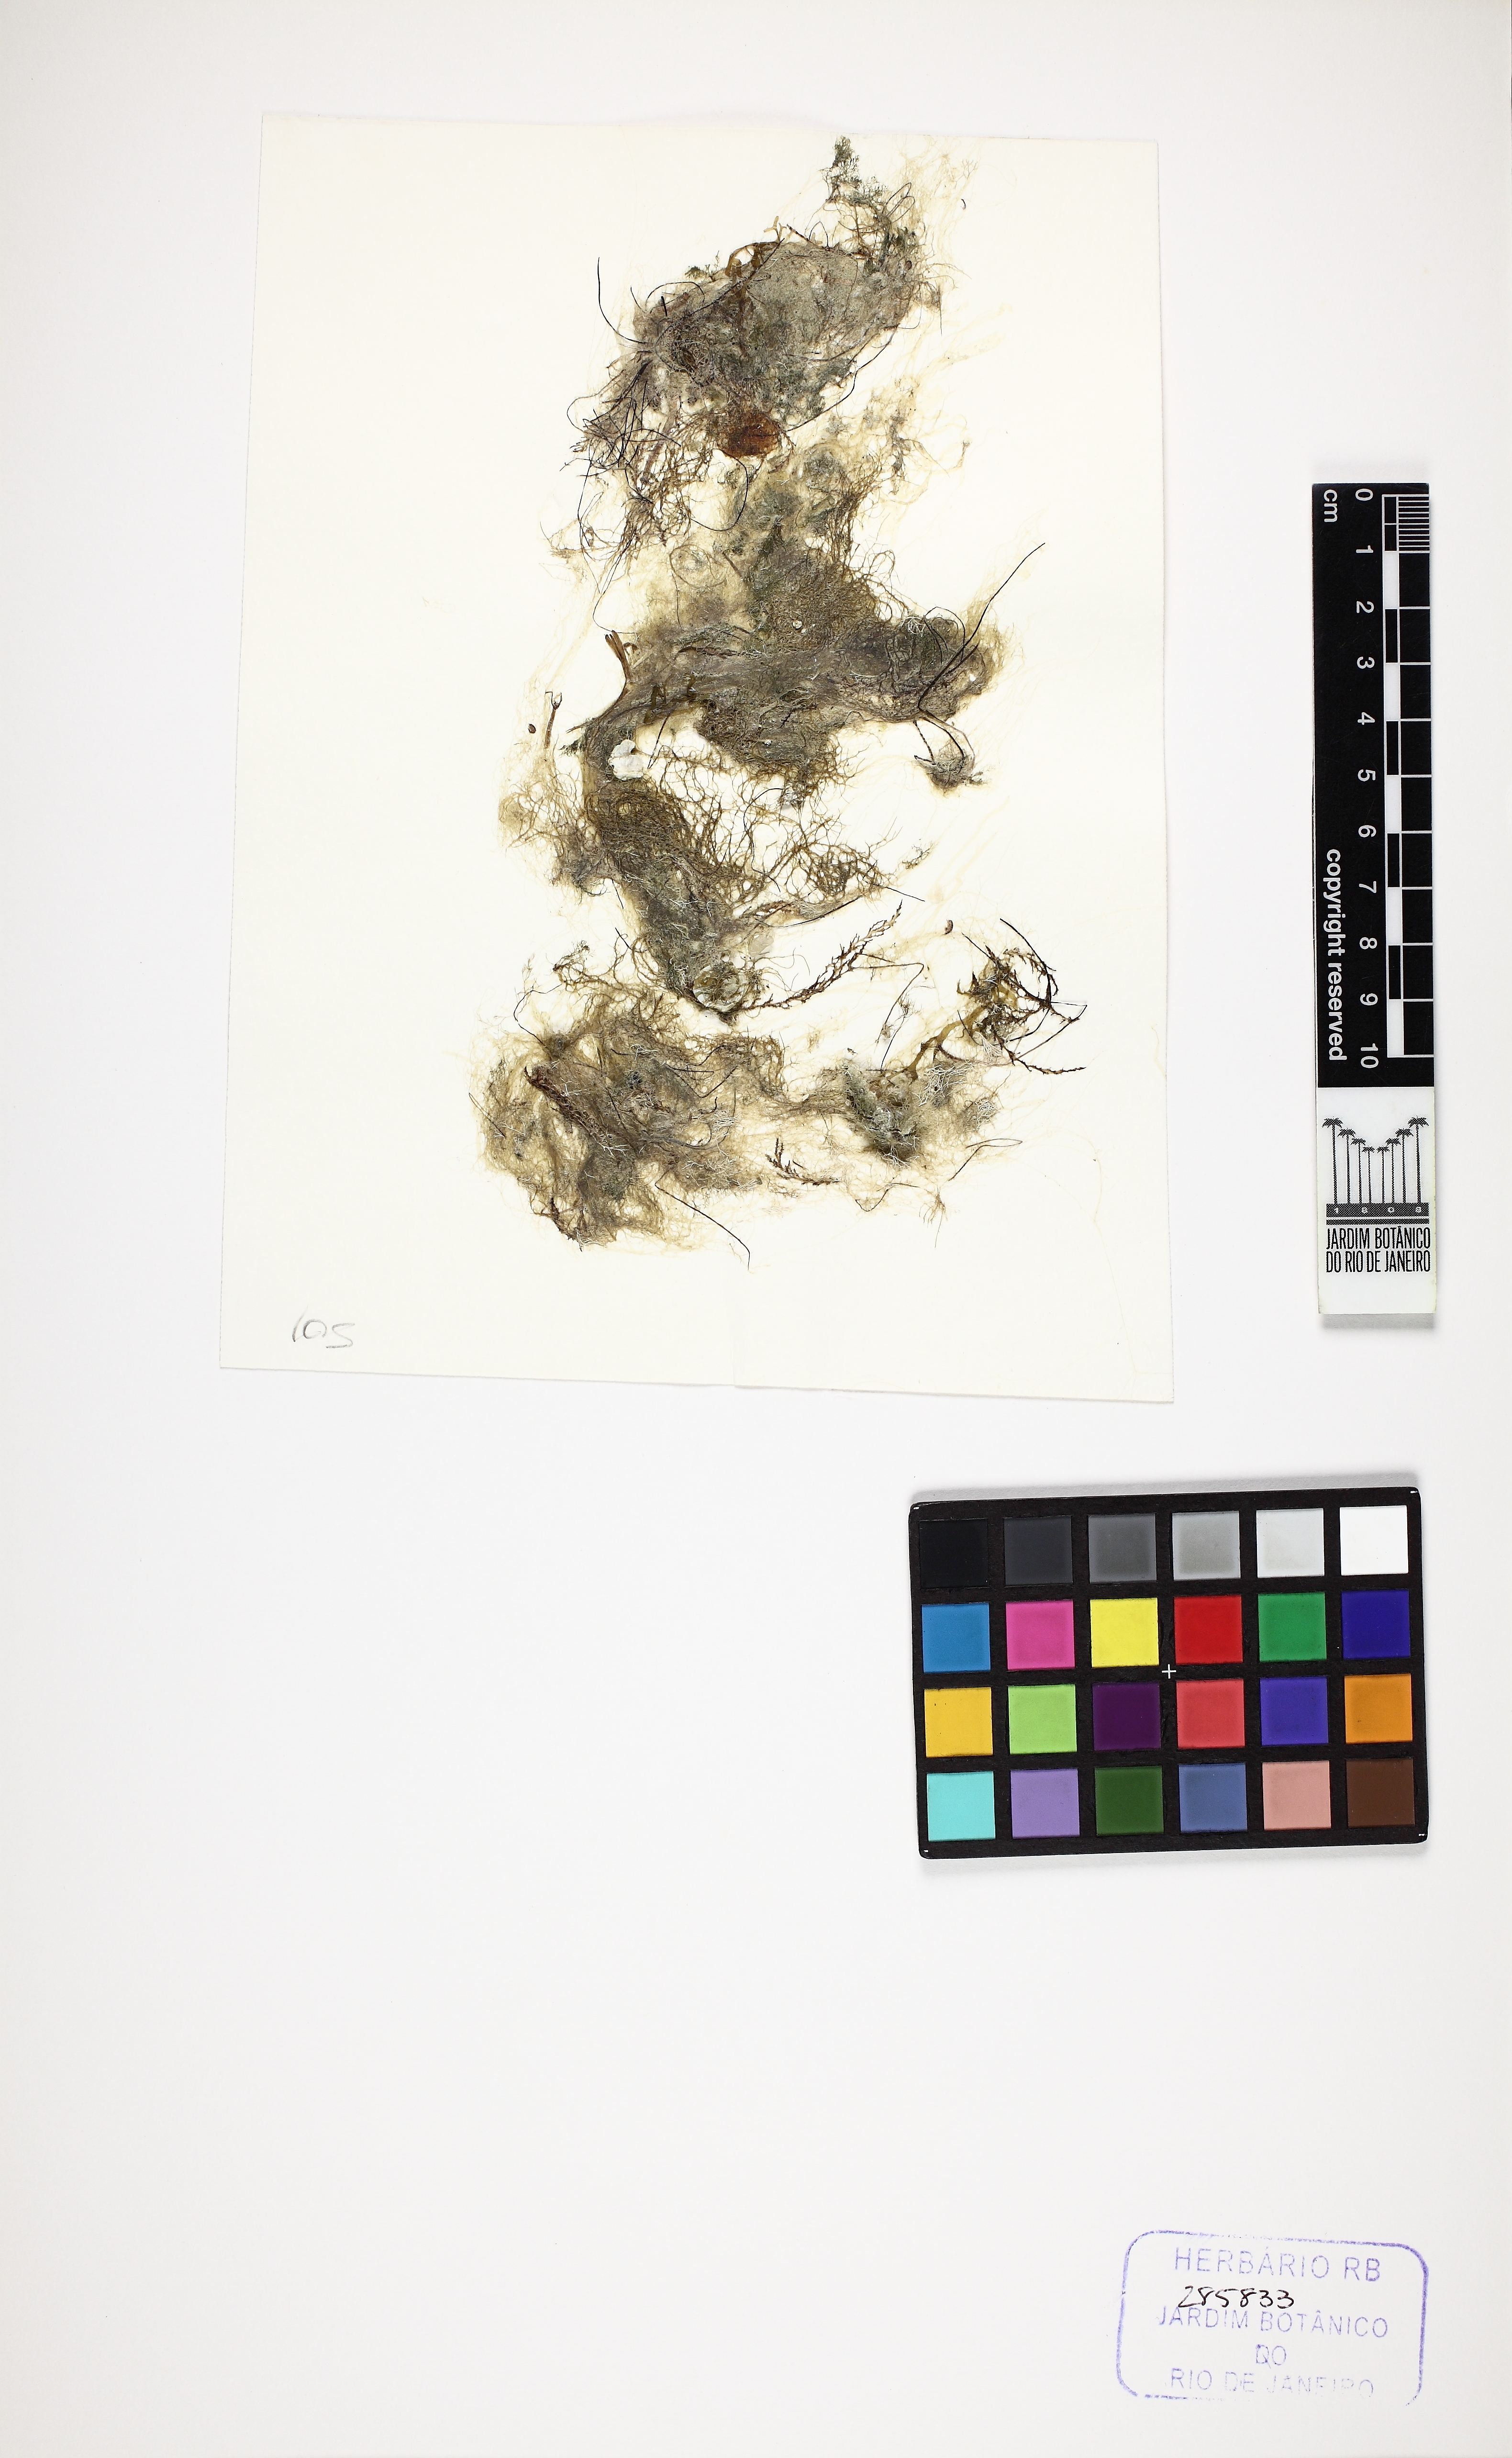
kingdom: Plantae
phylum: Chlorophyta
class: Ulvophyceae
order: Cladophorales
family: Cladophoraceae
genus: Chaetomorpha
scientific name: Chaetomorpha linum
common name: Sea hair
